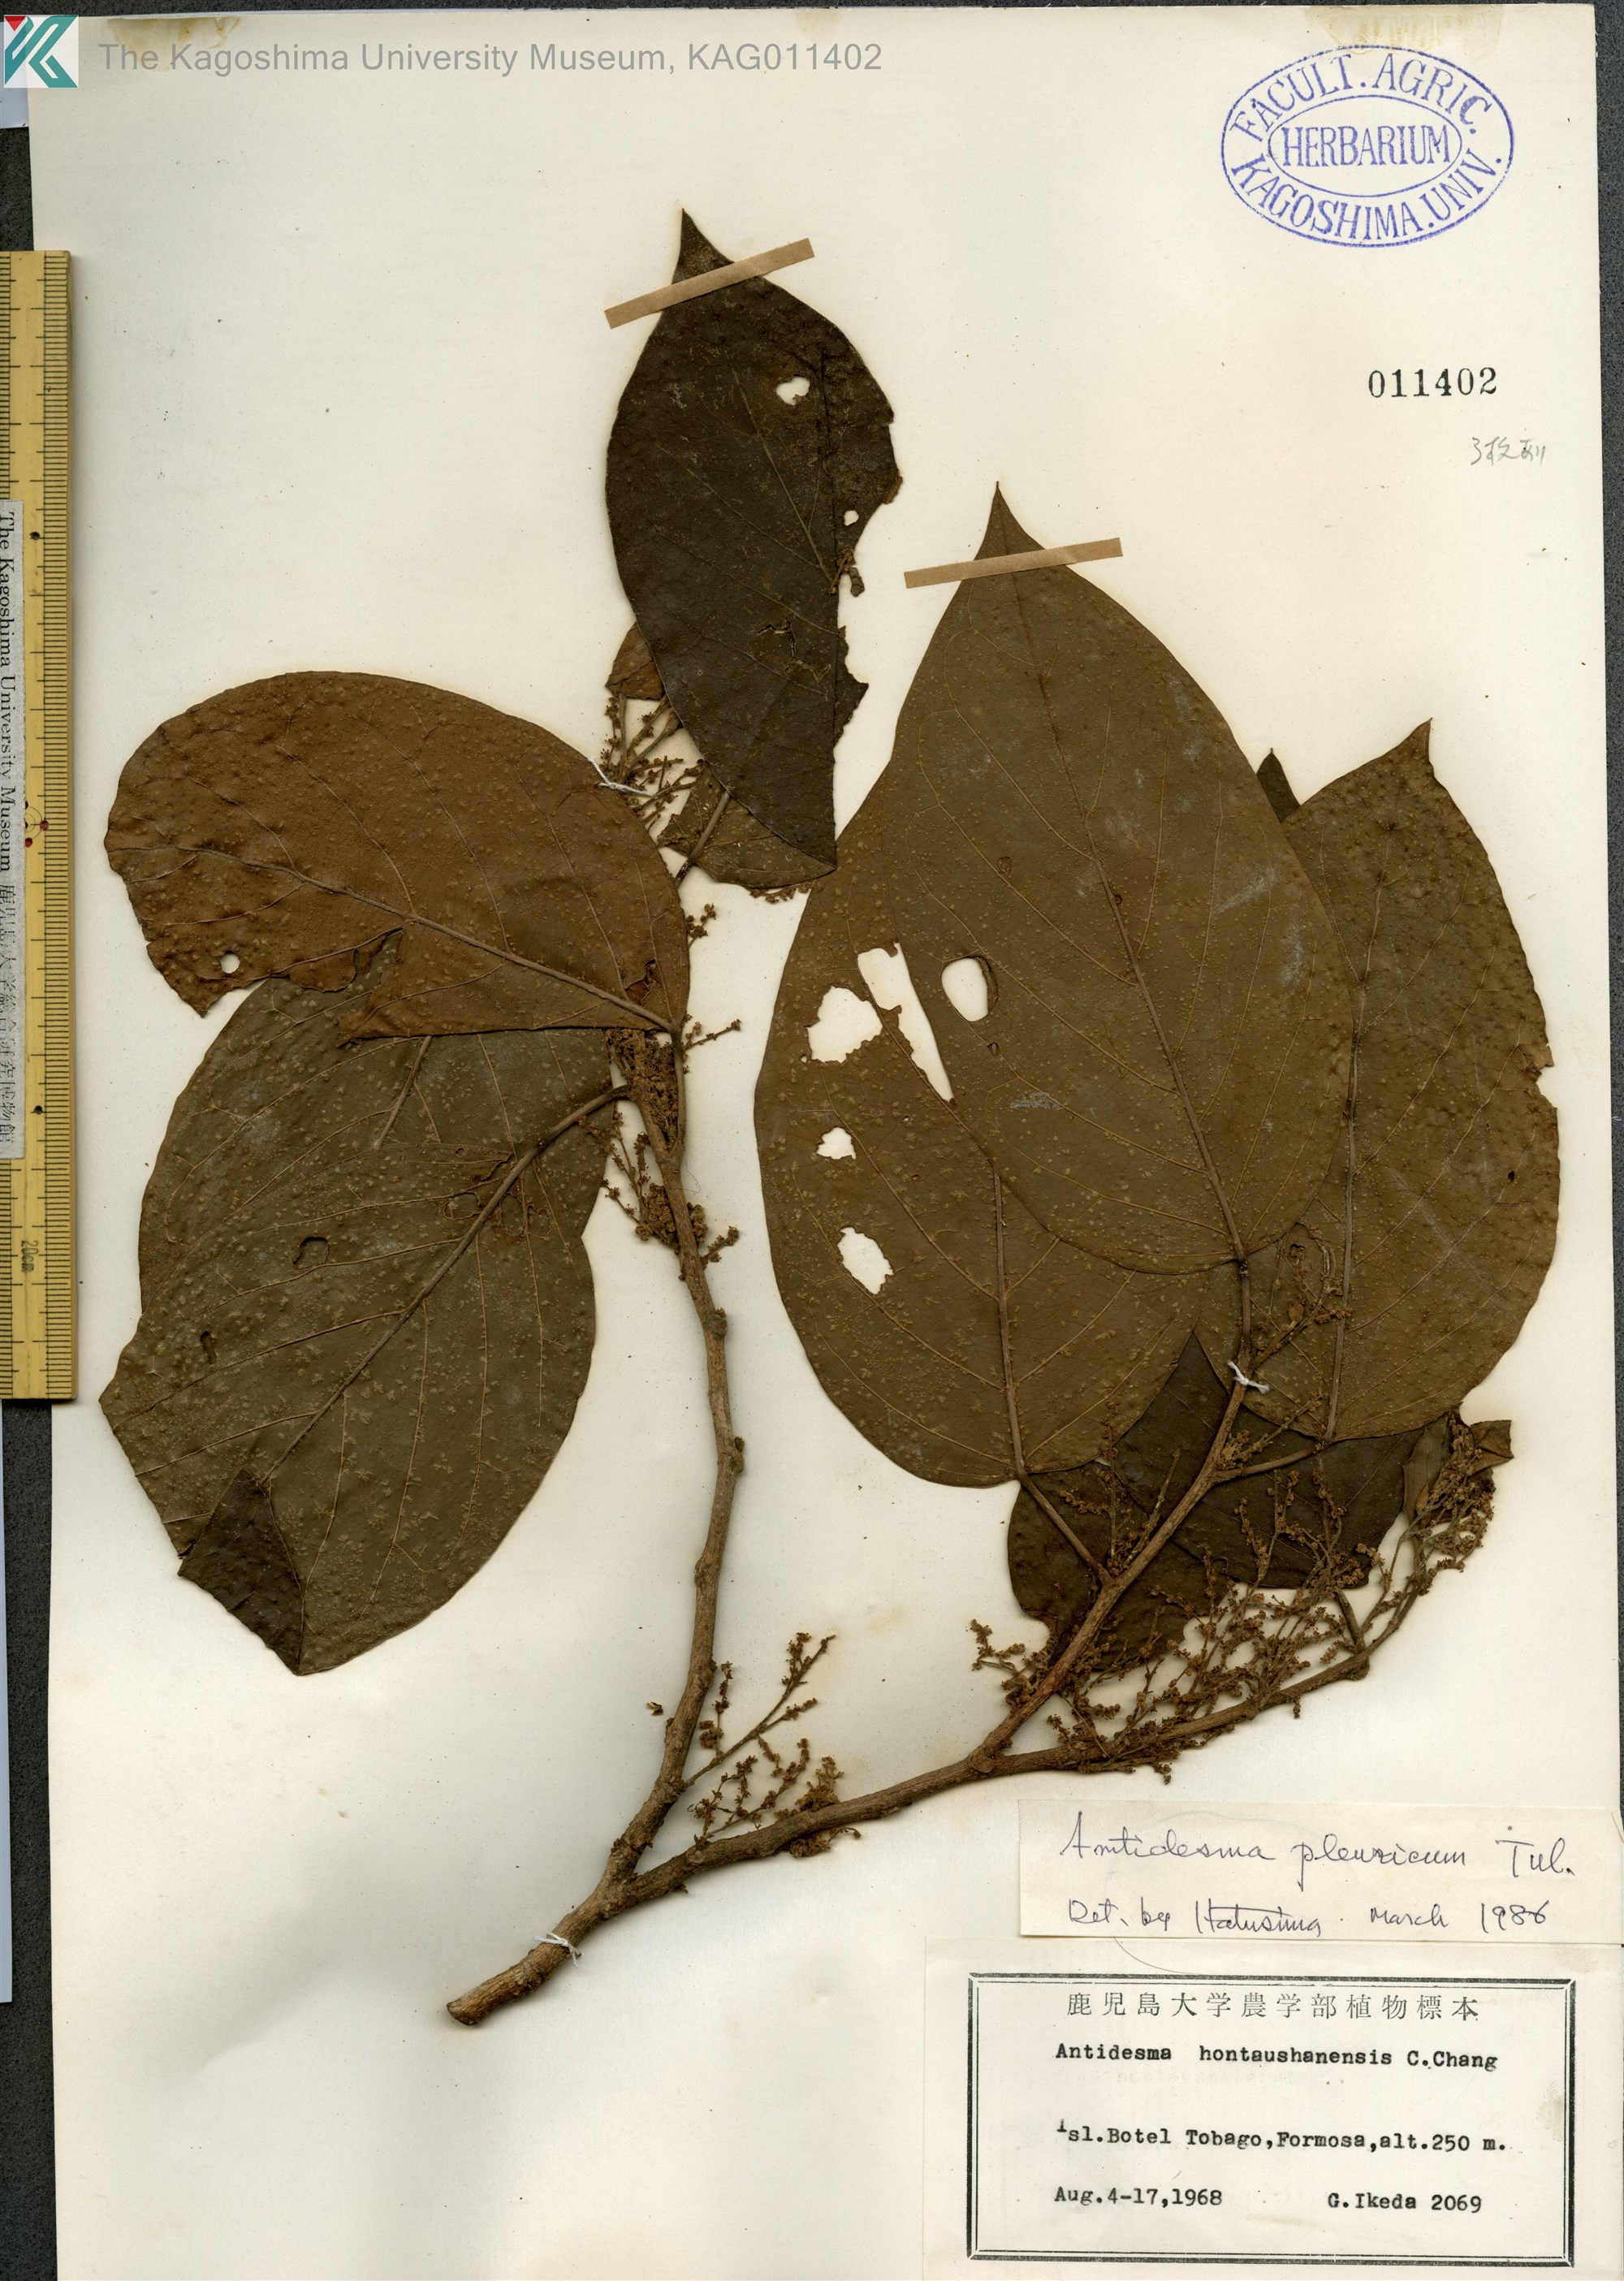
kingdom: Plantae
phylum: Tracheophyta
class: Magnoliopsida
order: Malpighiales
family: Phyllanthaceae
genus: Antidesma
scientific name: Antidesma pleuricum
